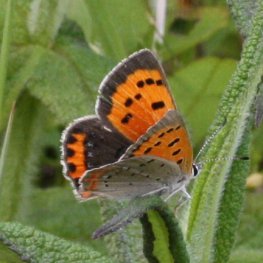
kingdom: Animalia
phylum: Arthropoda
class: Insecta
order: Lepidoptera
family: Lycaenidae
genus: Lycaena
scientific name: Lycaena phlaeas
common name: American Copper
